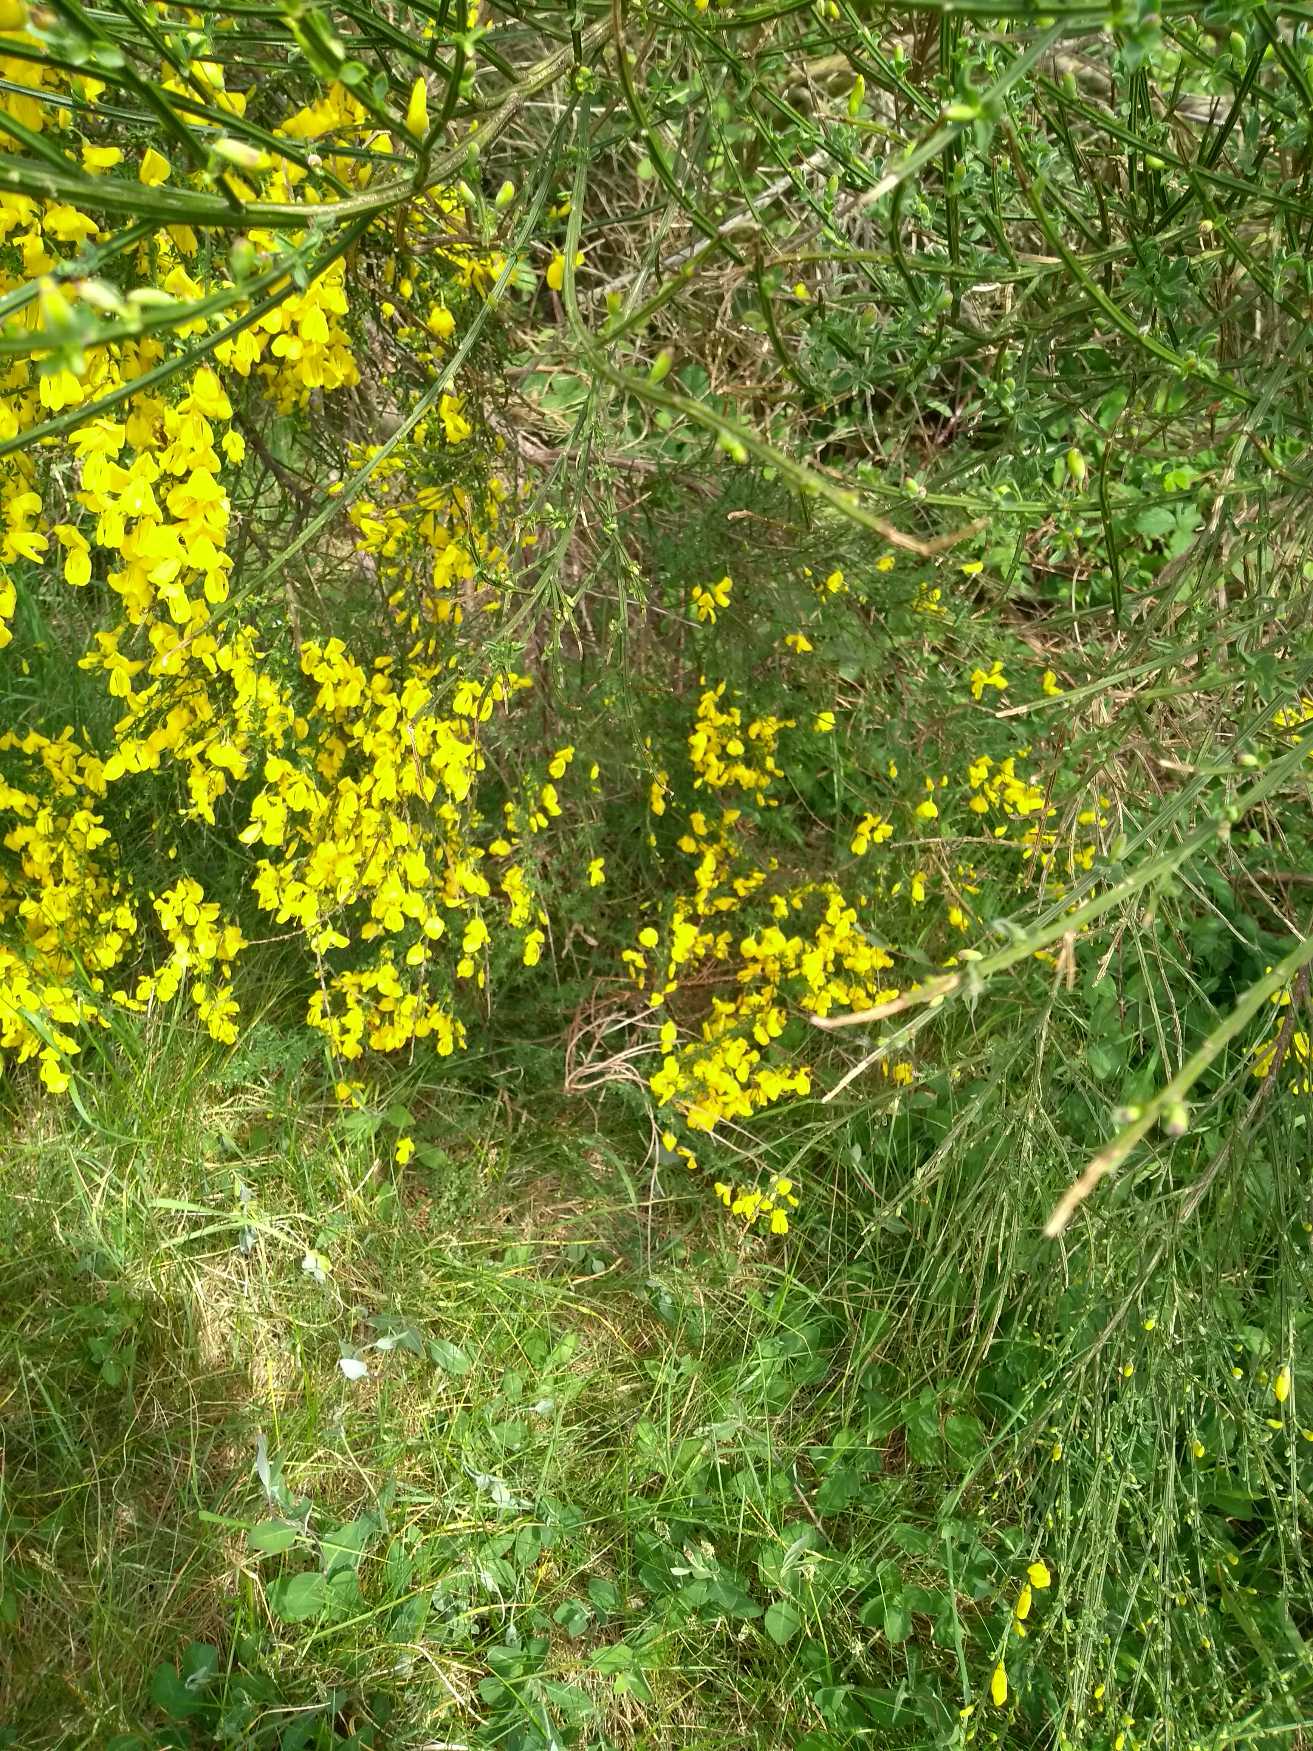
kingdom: Plantae
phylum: Tracheophyta
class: Magnoliopsida
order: Fabales
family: Fabaceae
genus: Cytisus
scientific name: Cytisus scoparius
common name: Almindelig gyvel
